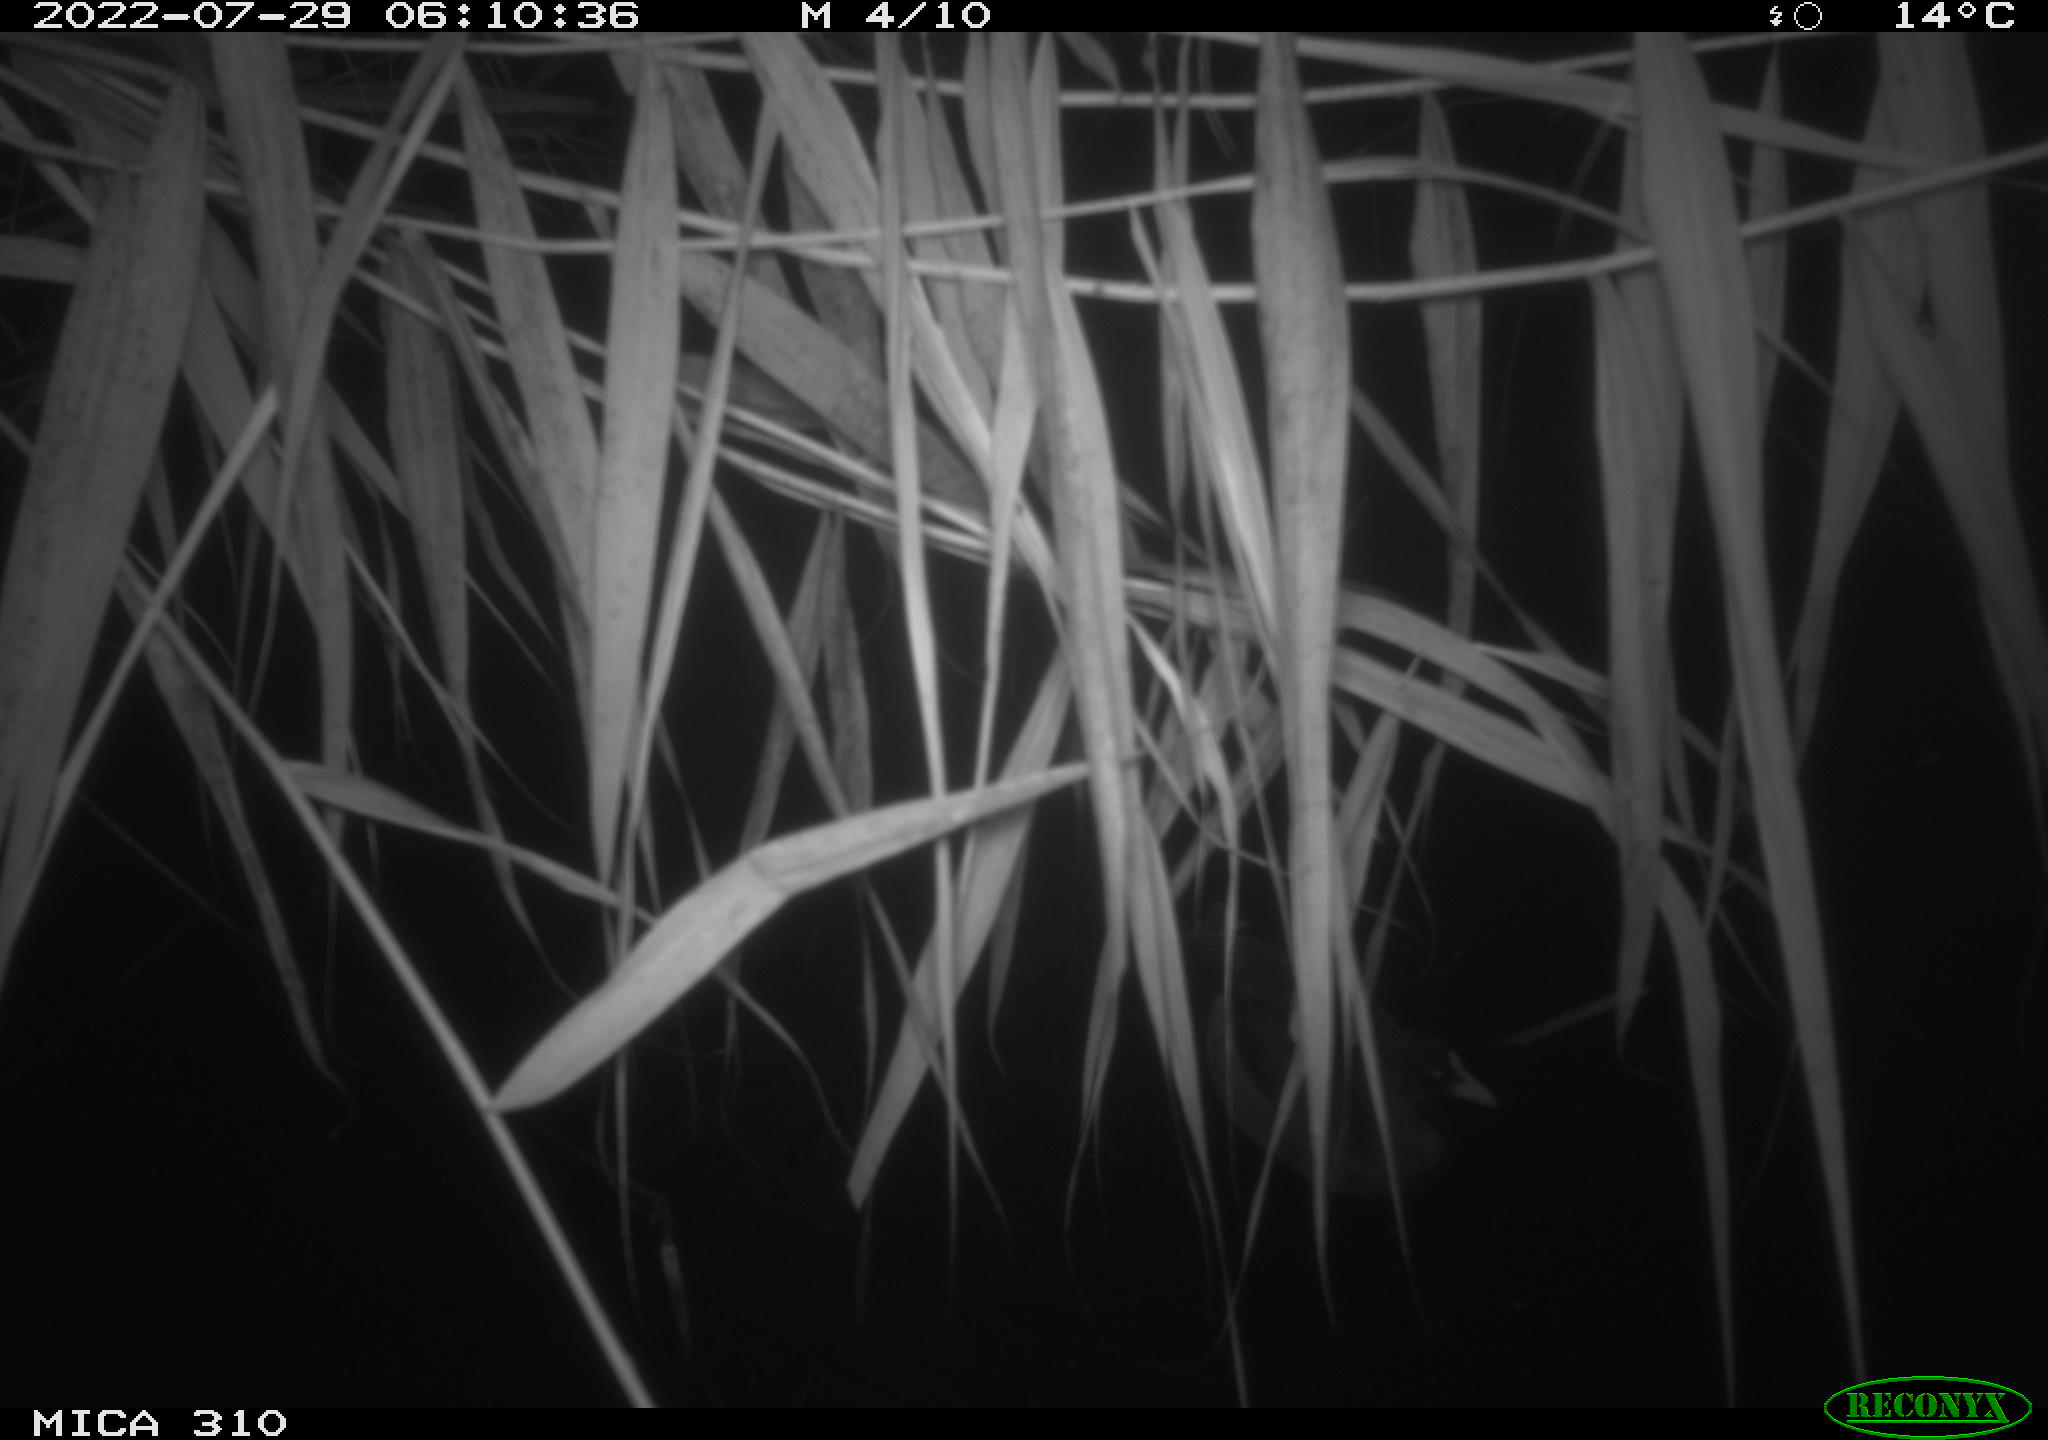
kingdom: Animalia
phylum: Chordata
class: Aves
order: Gruiformes
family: Rallidae
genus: Fulica
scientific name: Fulica atra
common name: Eurasian coot
